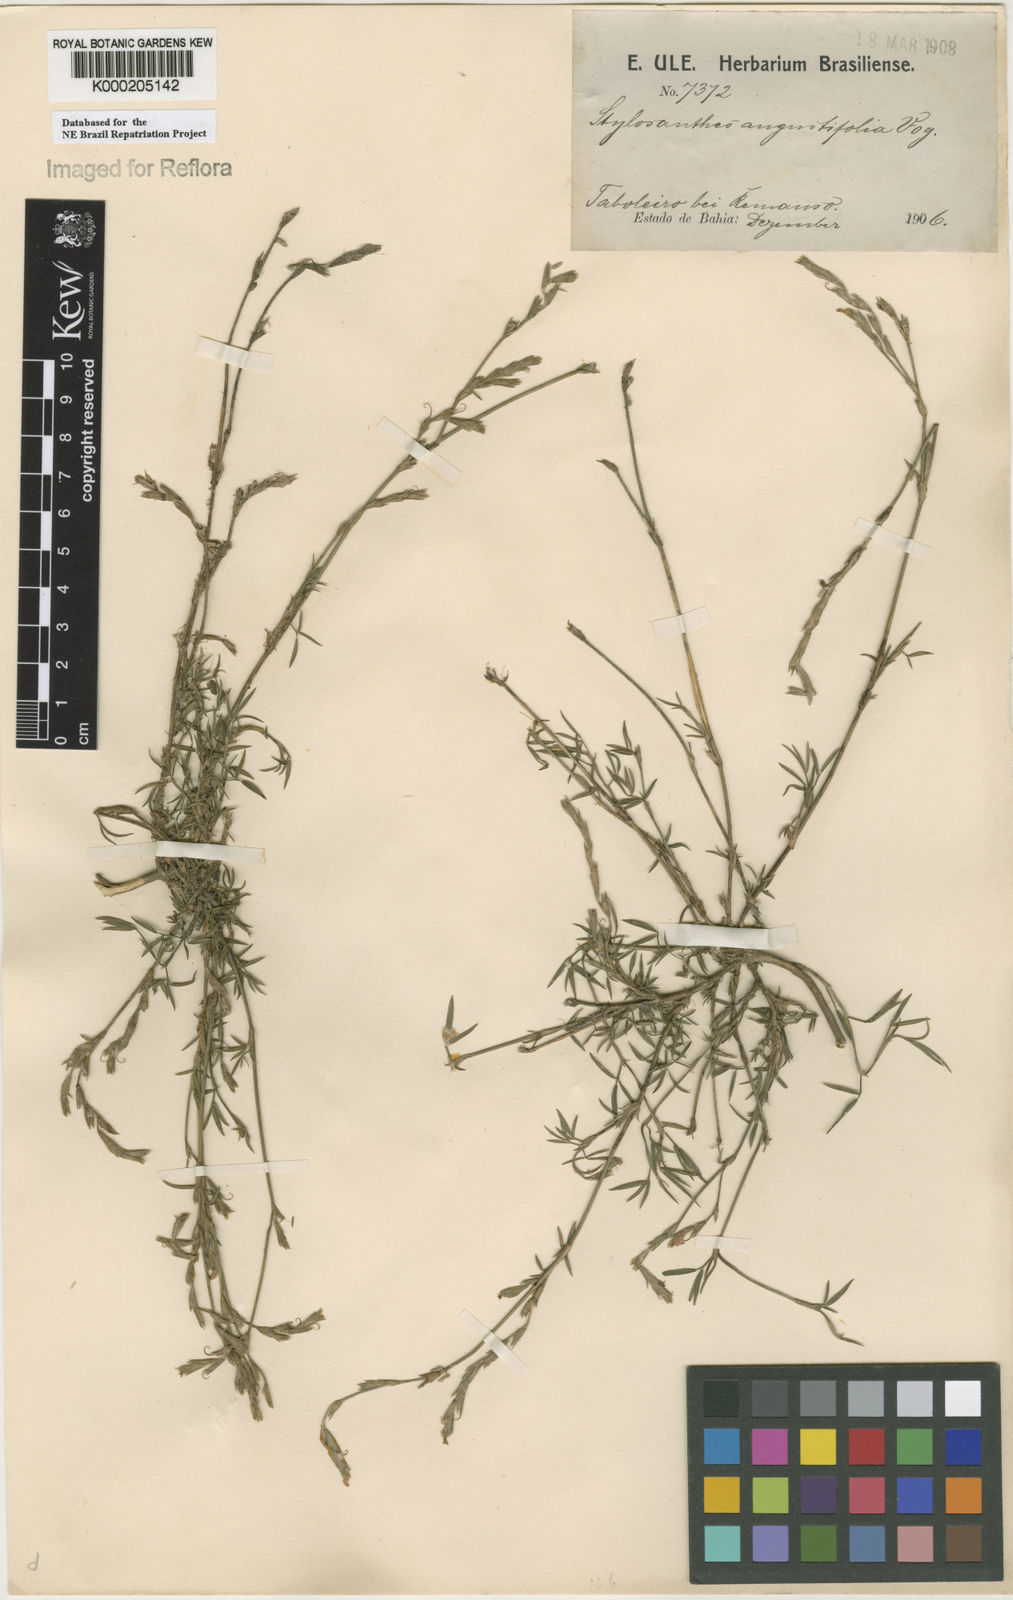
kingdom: Plantae
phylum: Tracheophyta
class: Magnoliopsida
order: Fabales
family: Fabaceae
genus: Stylosanthes
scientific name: Stylosanthes angustifolia
